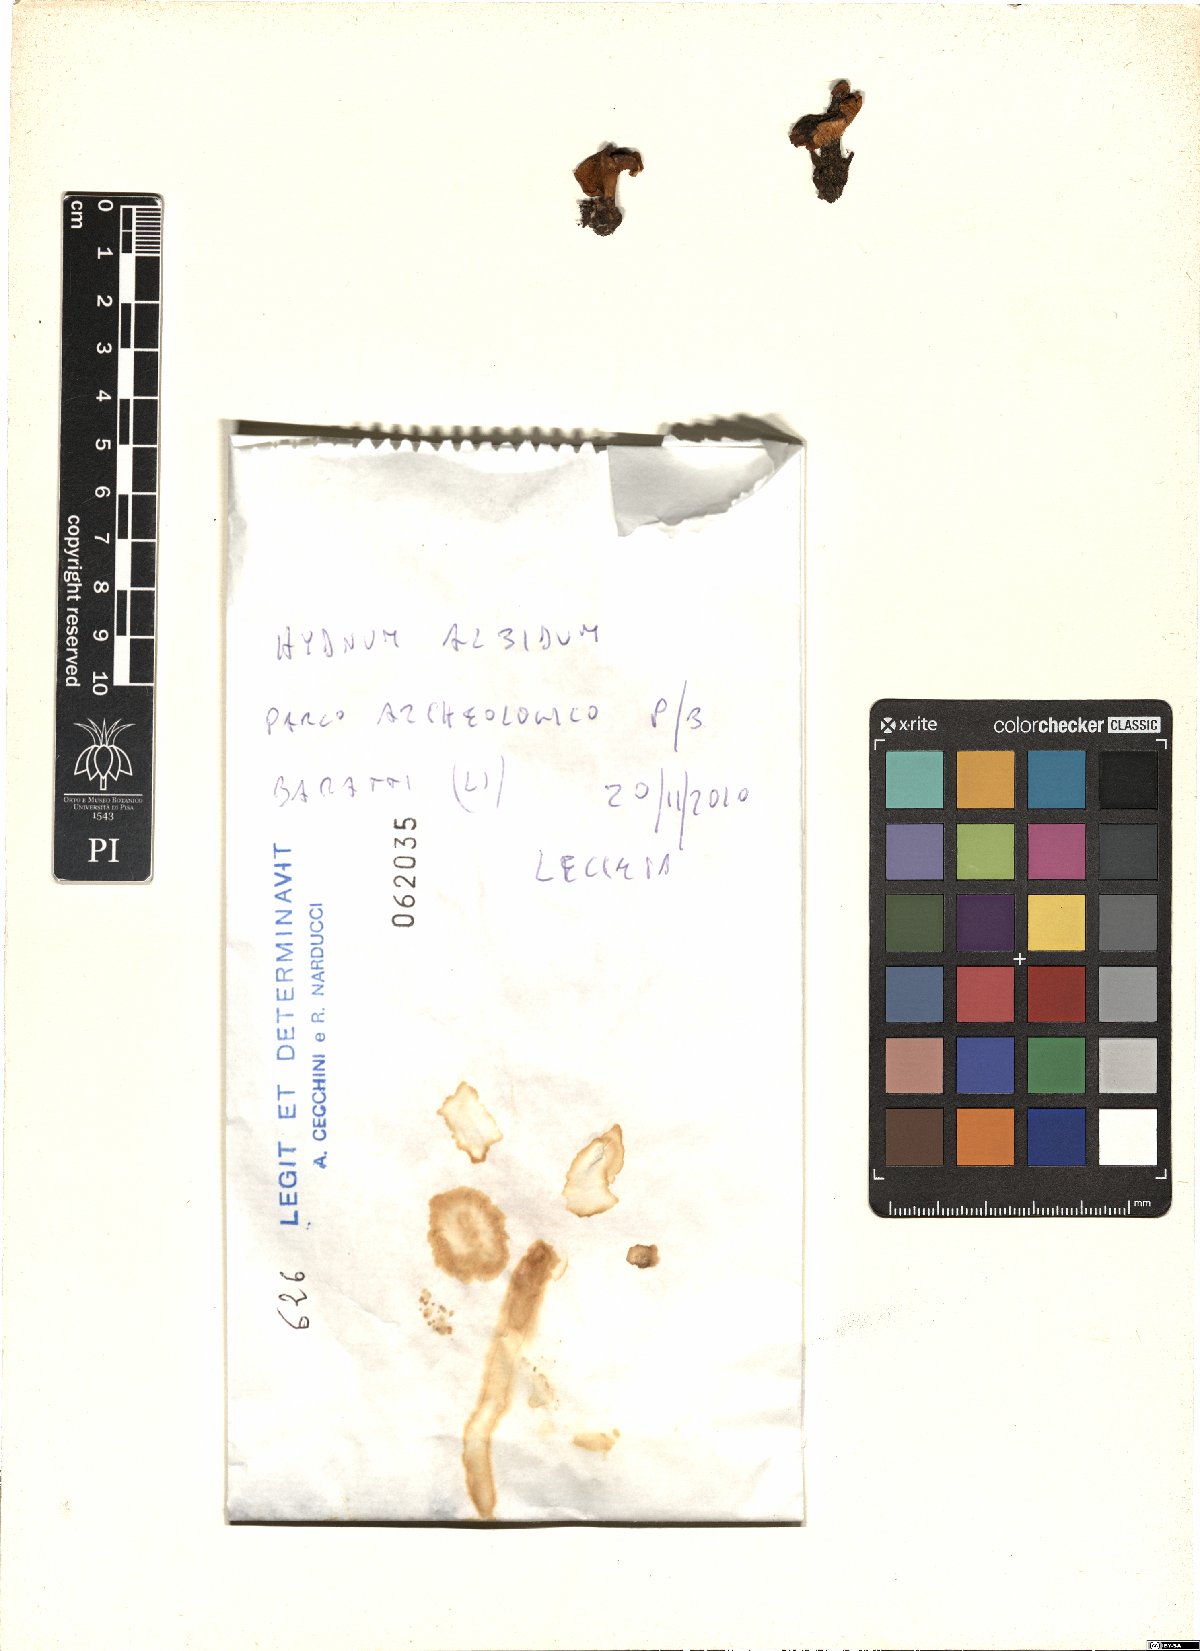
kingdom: Fungi
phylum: Basidiomycota
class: Agaricomycetes
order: Cantharellales
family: Hydnaceae
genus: Hydnum
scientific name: Hydnum albidum
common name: White hedgehog
